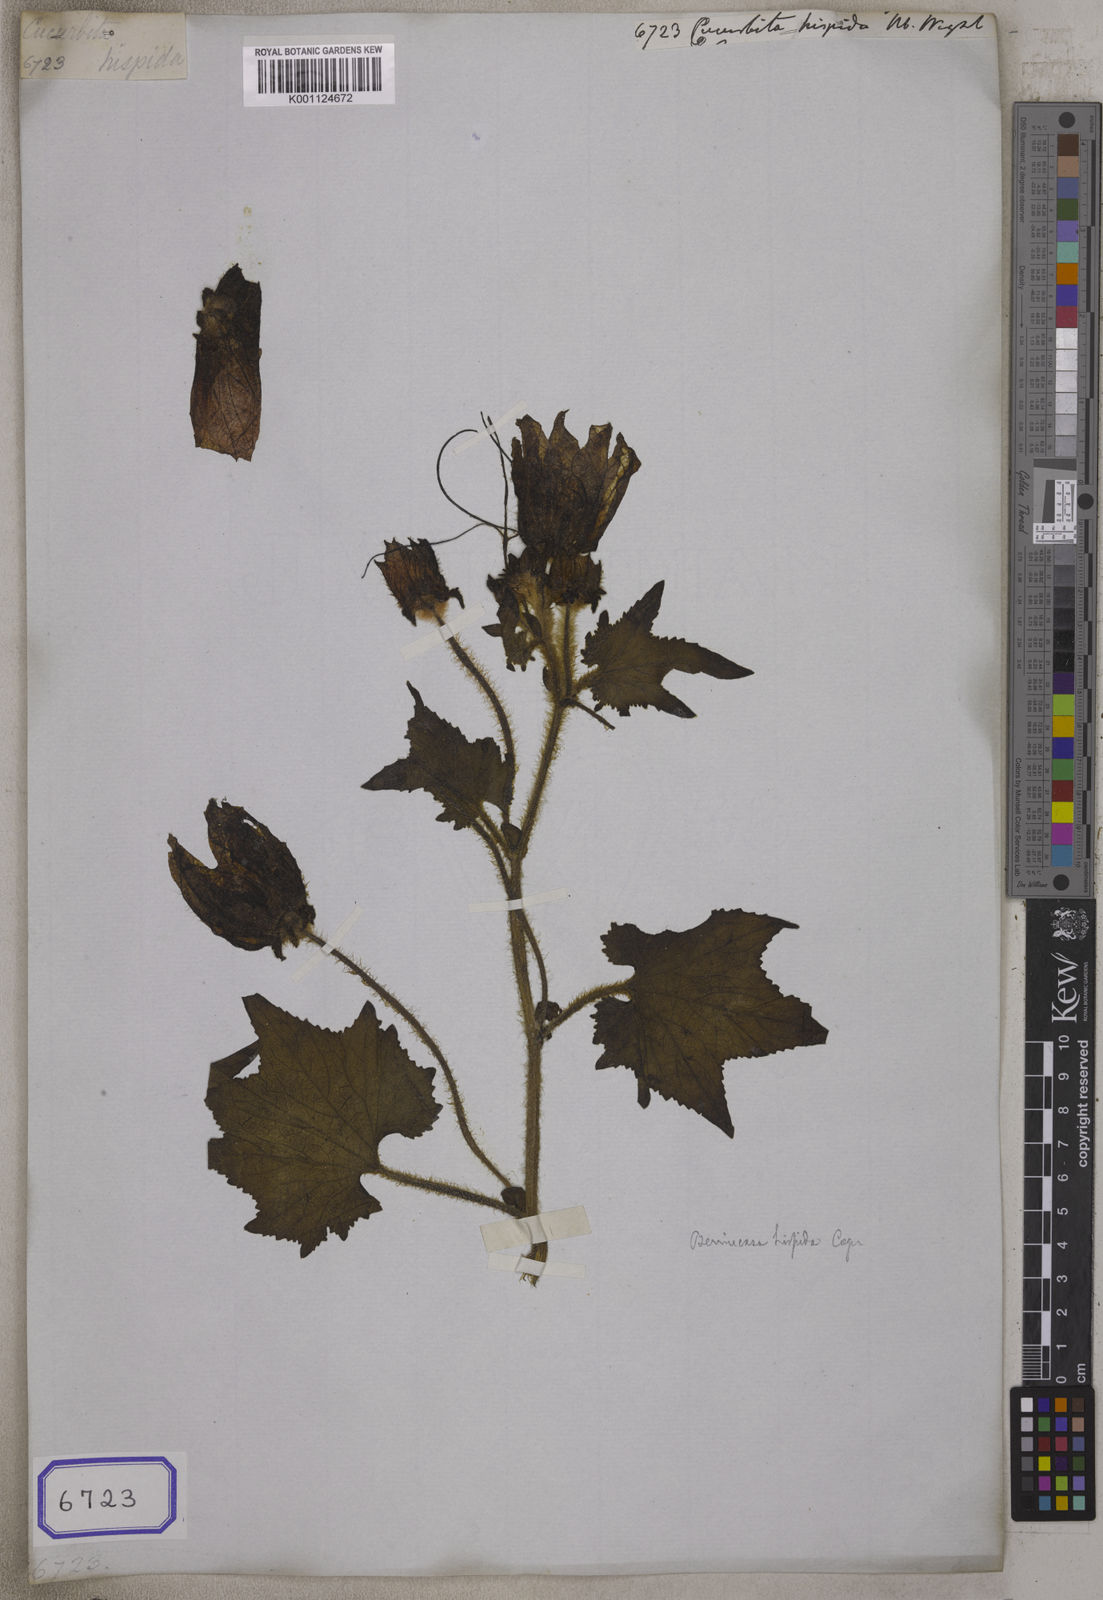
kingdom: Plantae
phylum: Tracheophyta
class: Magnoliopsida
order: Cucurbitales
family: Cucurbitaceae
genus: Benincasa
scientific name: Benincasa hispida
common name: Chinese-watermelon
